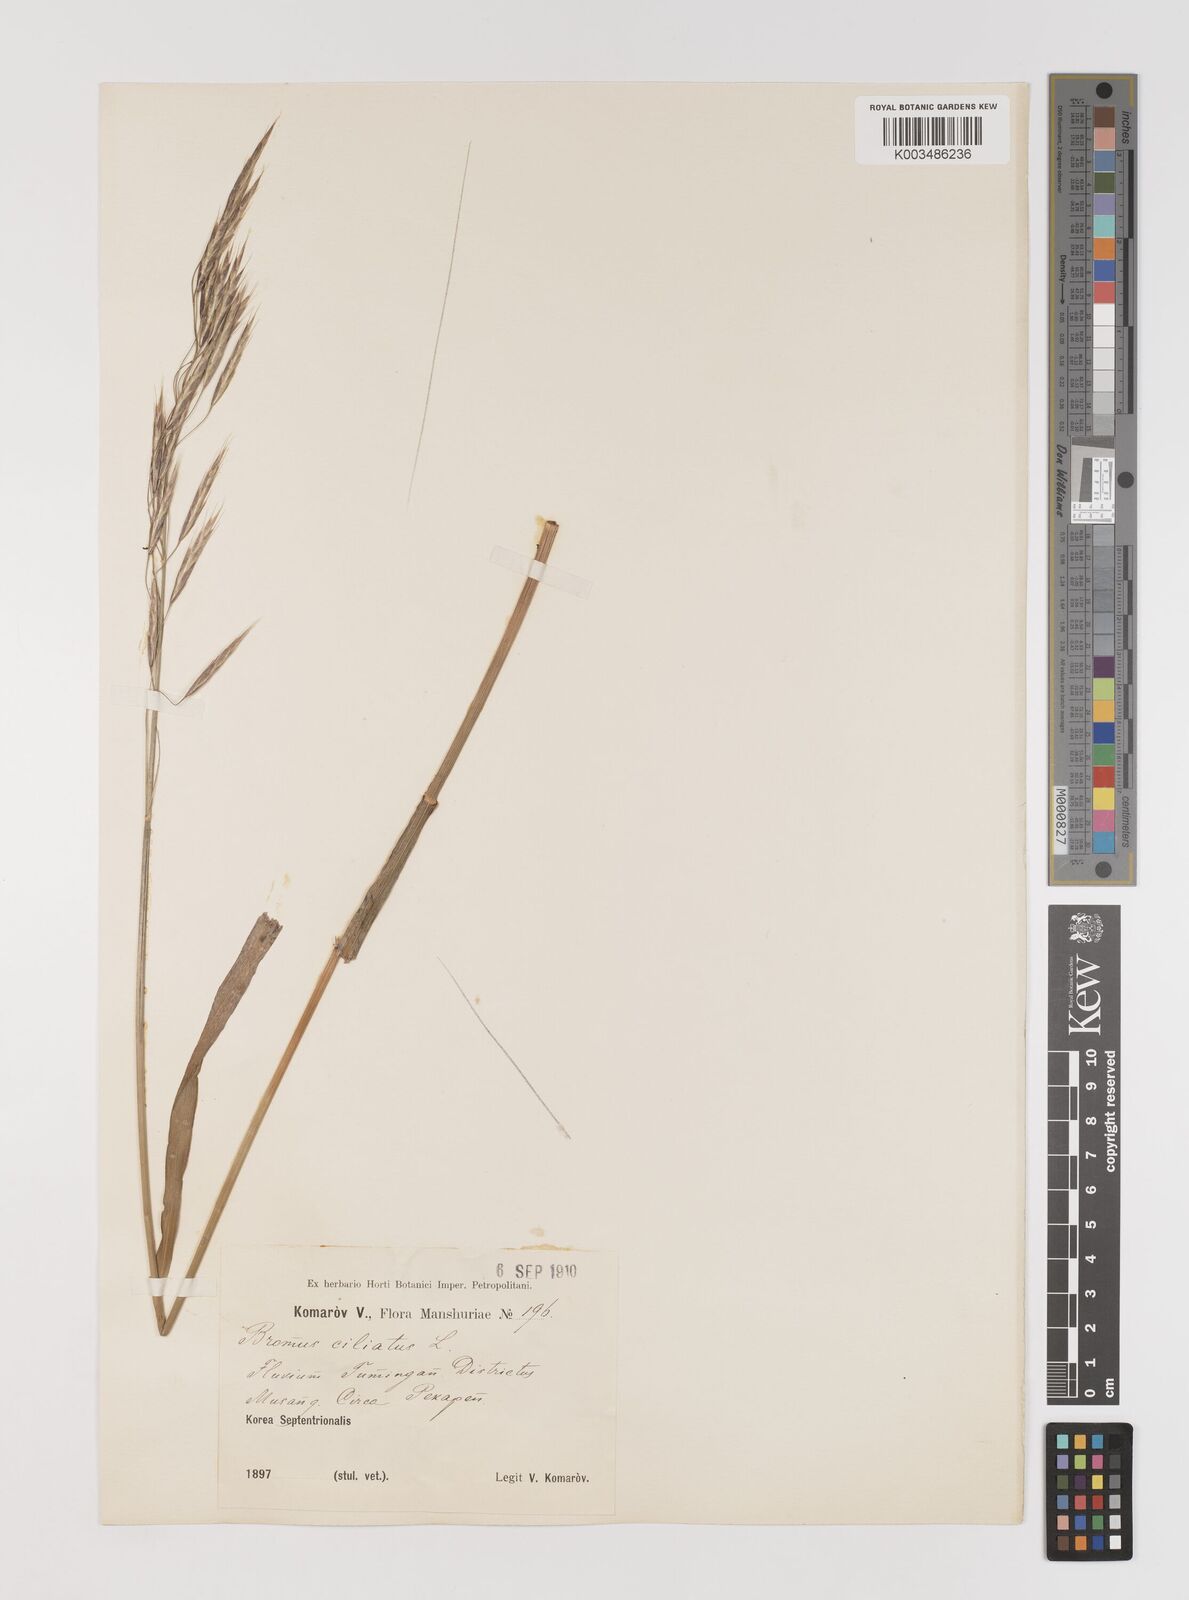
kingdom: Plantae
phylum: Tracheophyta
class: Liliopsida
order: Poales
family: Poaceae
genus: Bromus
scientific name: Bromus ciliatus
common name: Fringe brome
